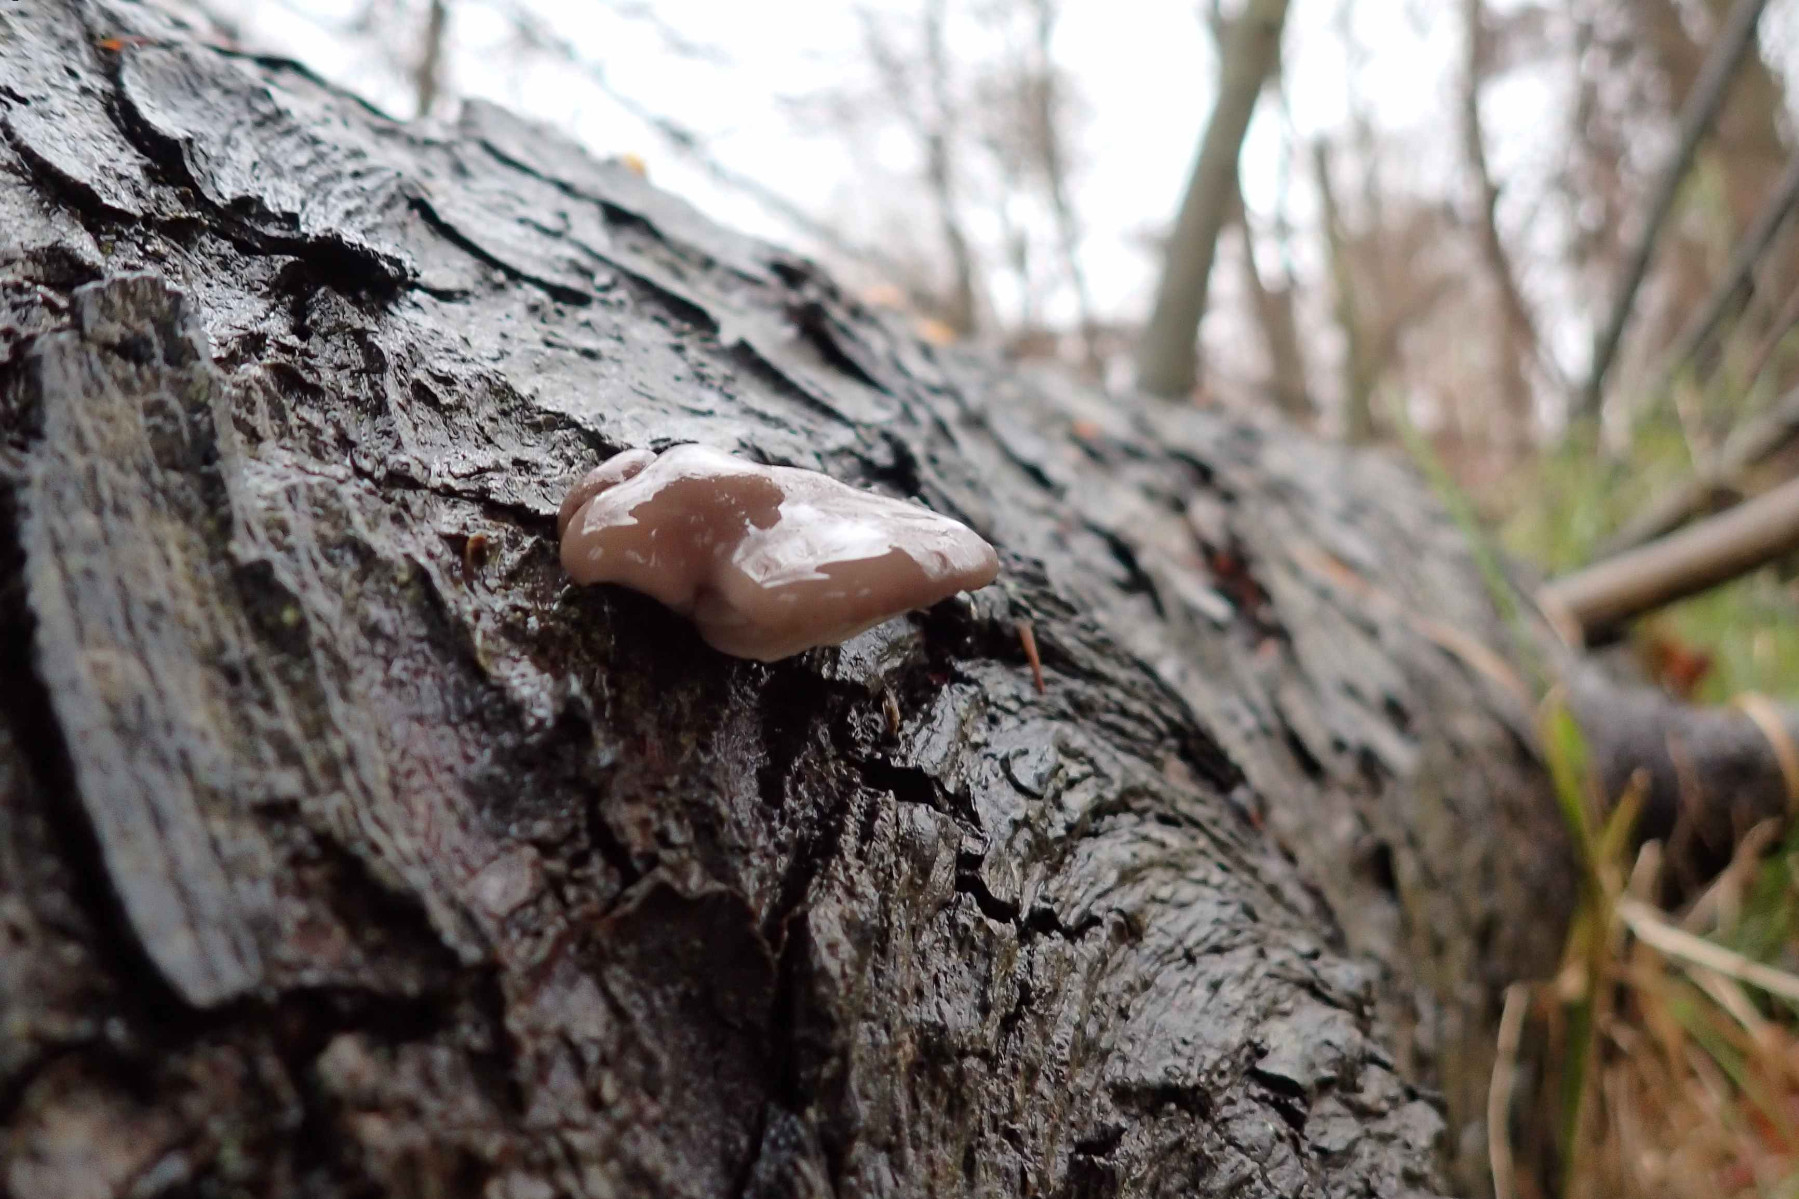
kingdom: Fungi
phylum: Basidiomycota
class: Agaricomycetes
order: Agaricales
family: Pleurotaceae
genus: Pleurotus
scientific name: Pleurotus ostreatus
